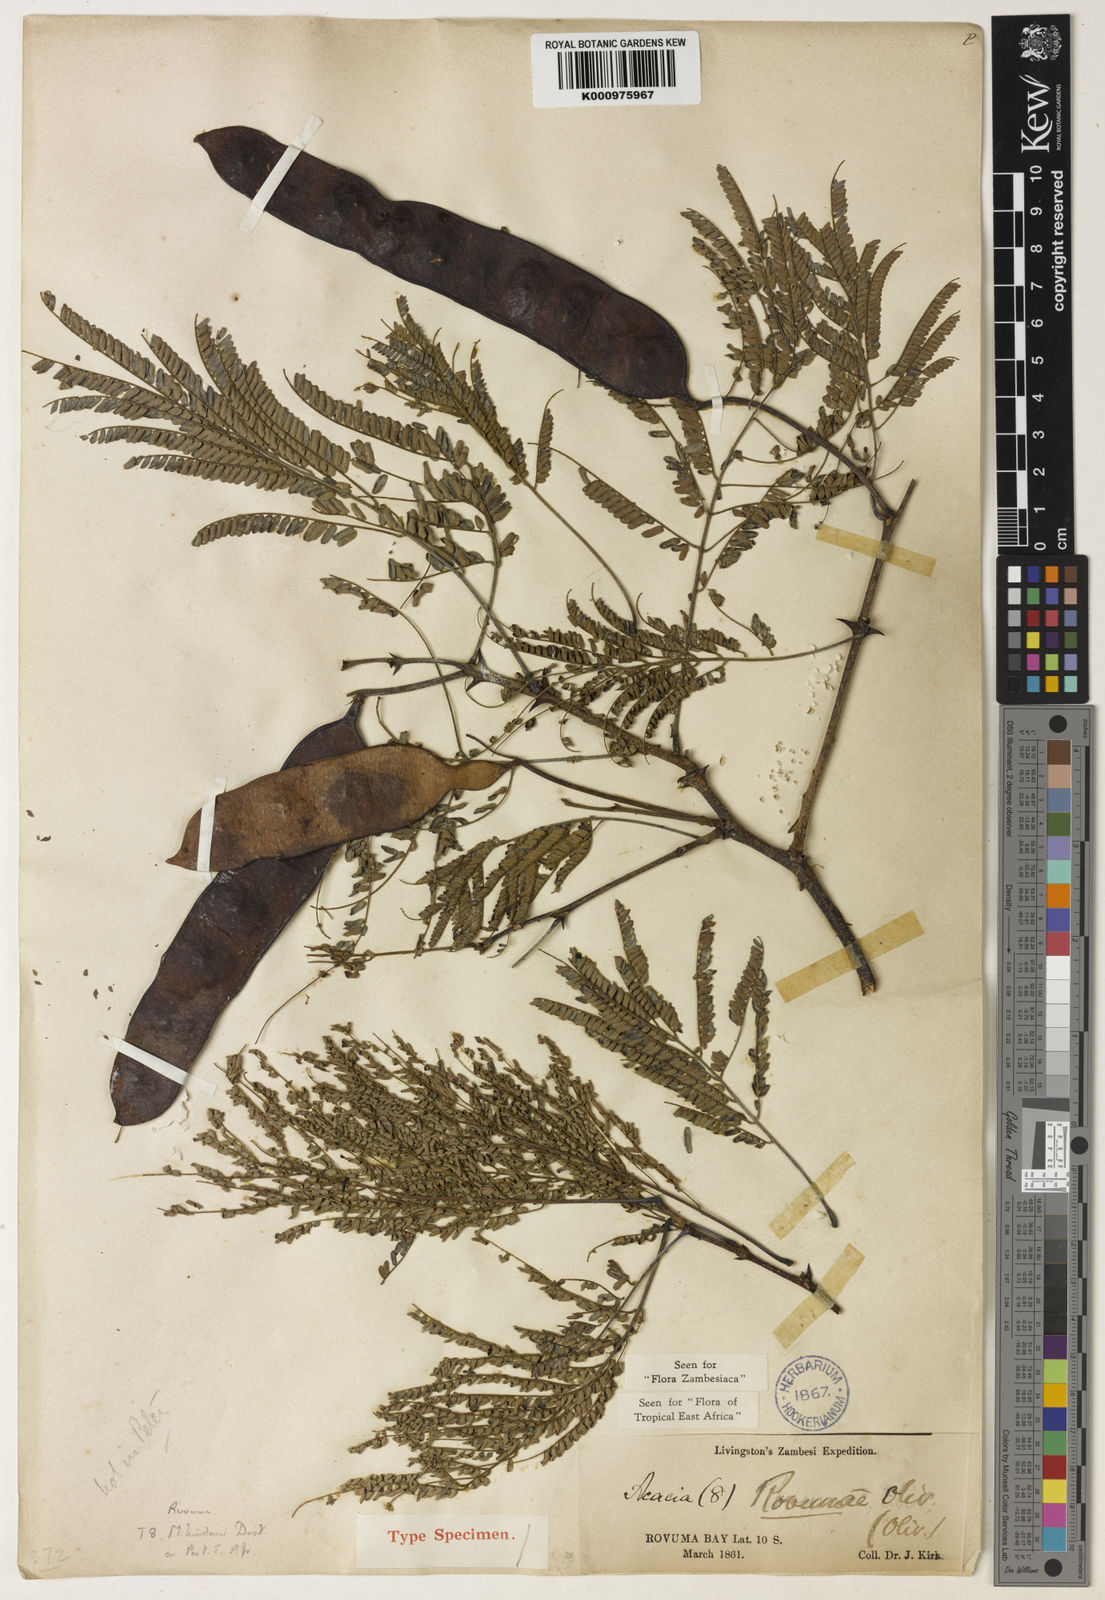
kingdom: Plantae
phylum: Tracheophyta
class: Magnoliopsida
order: Fabales
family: Fabaceae
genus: Senegalia
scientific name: Senegalia rovumae
